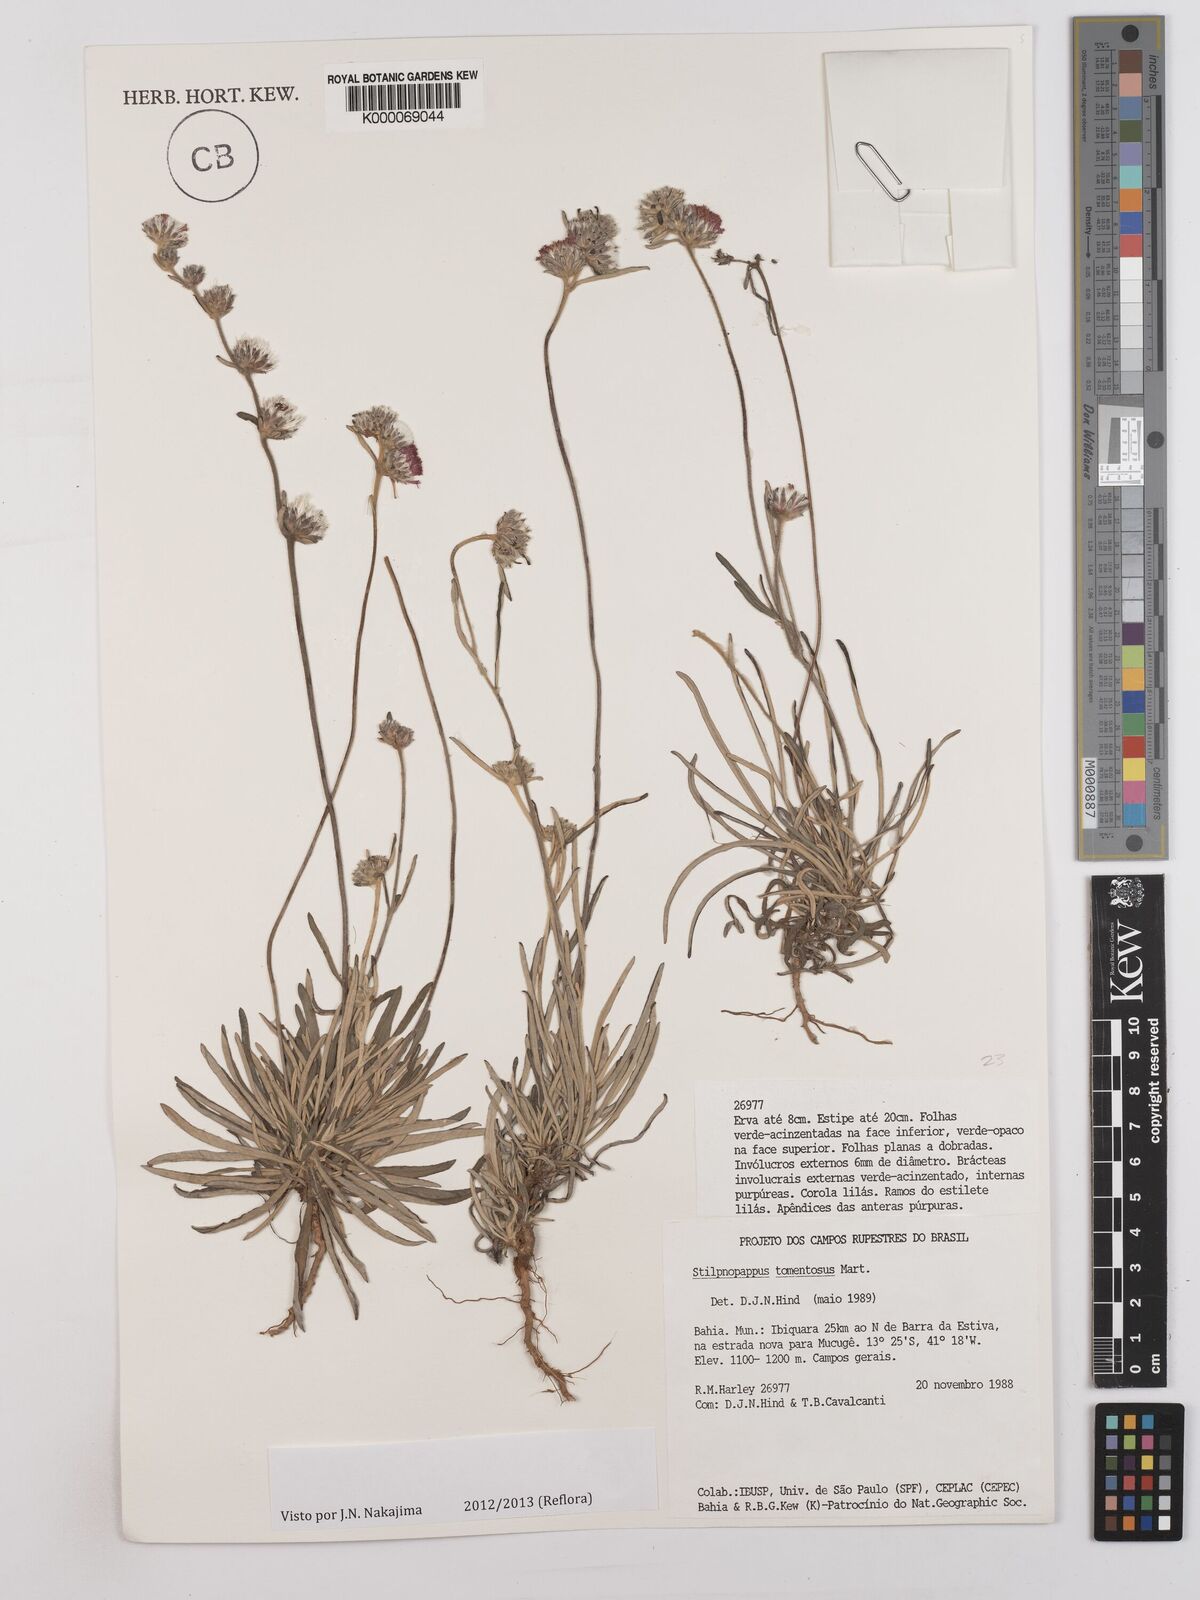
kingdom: Plantae
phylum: Tracheophyta
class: Magnoliopsida
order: Asterales
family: Asteraceae
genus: Stilpnopappus
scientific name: Stilpnopappus tomentosus
